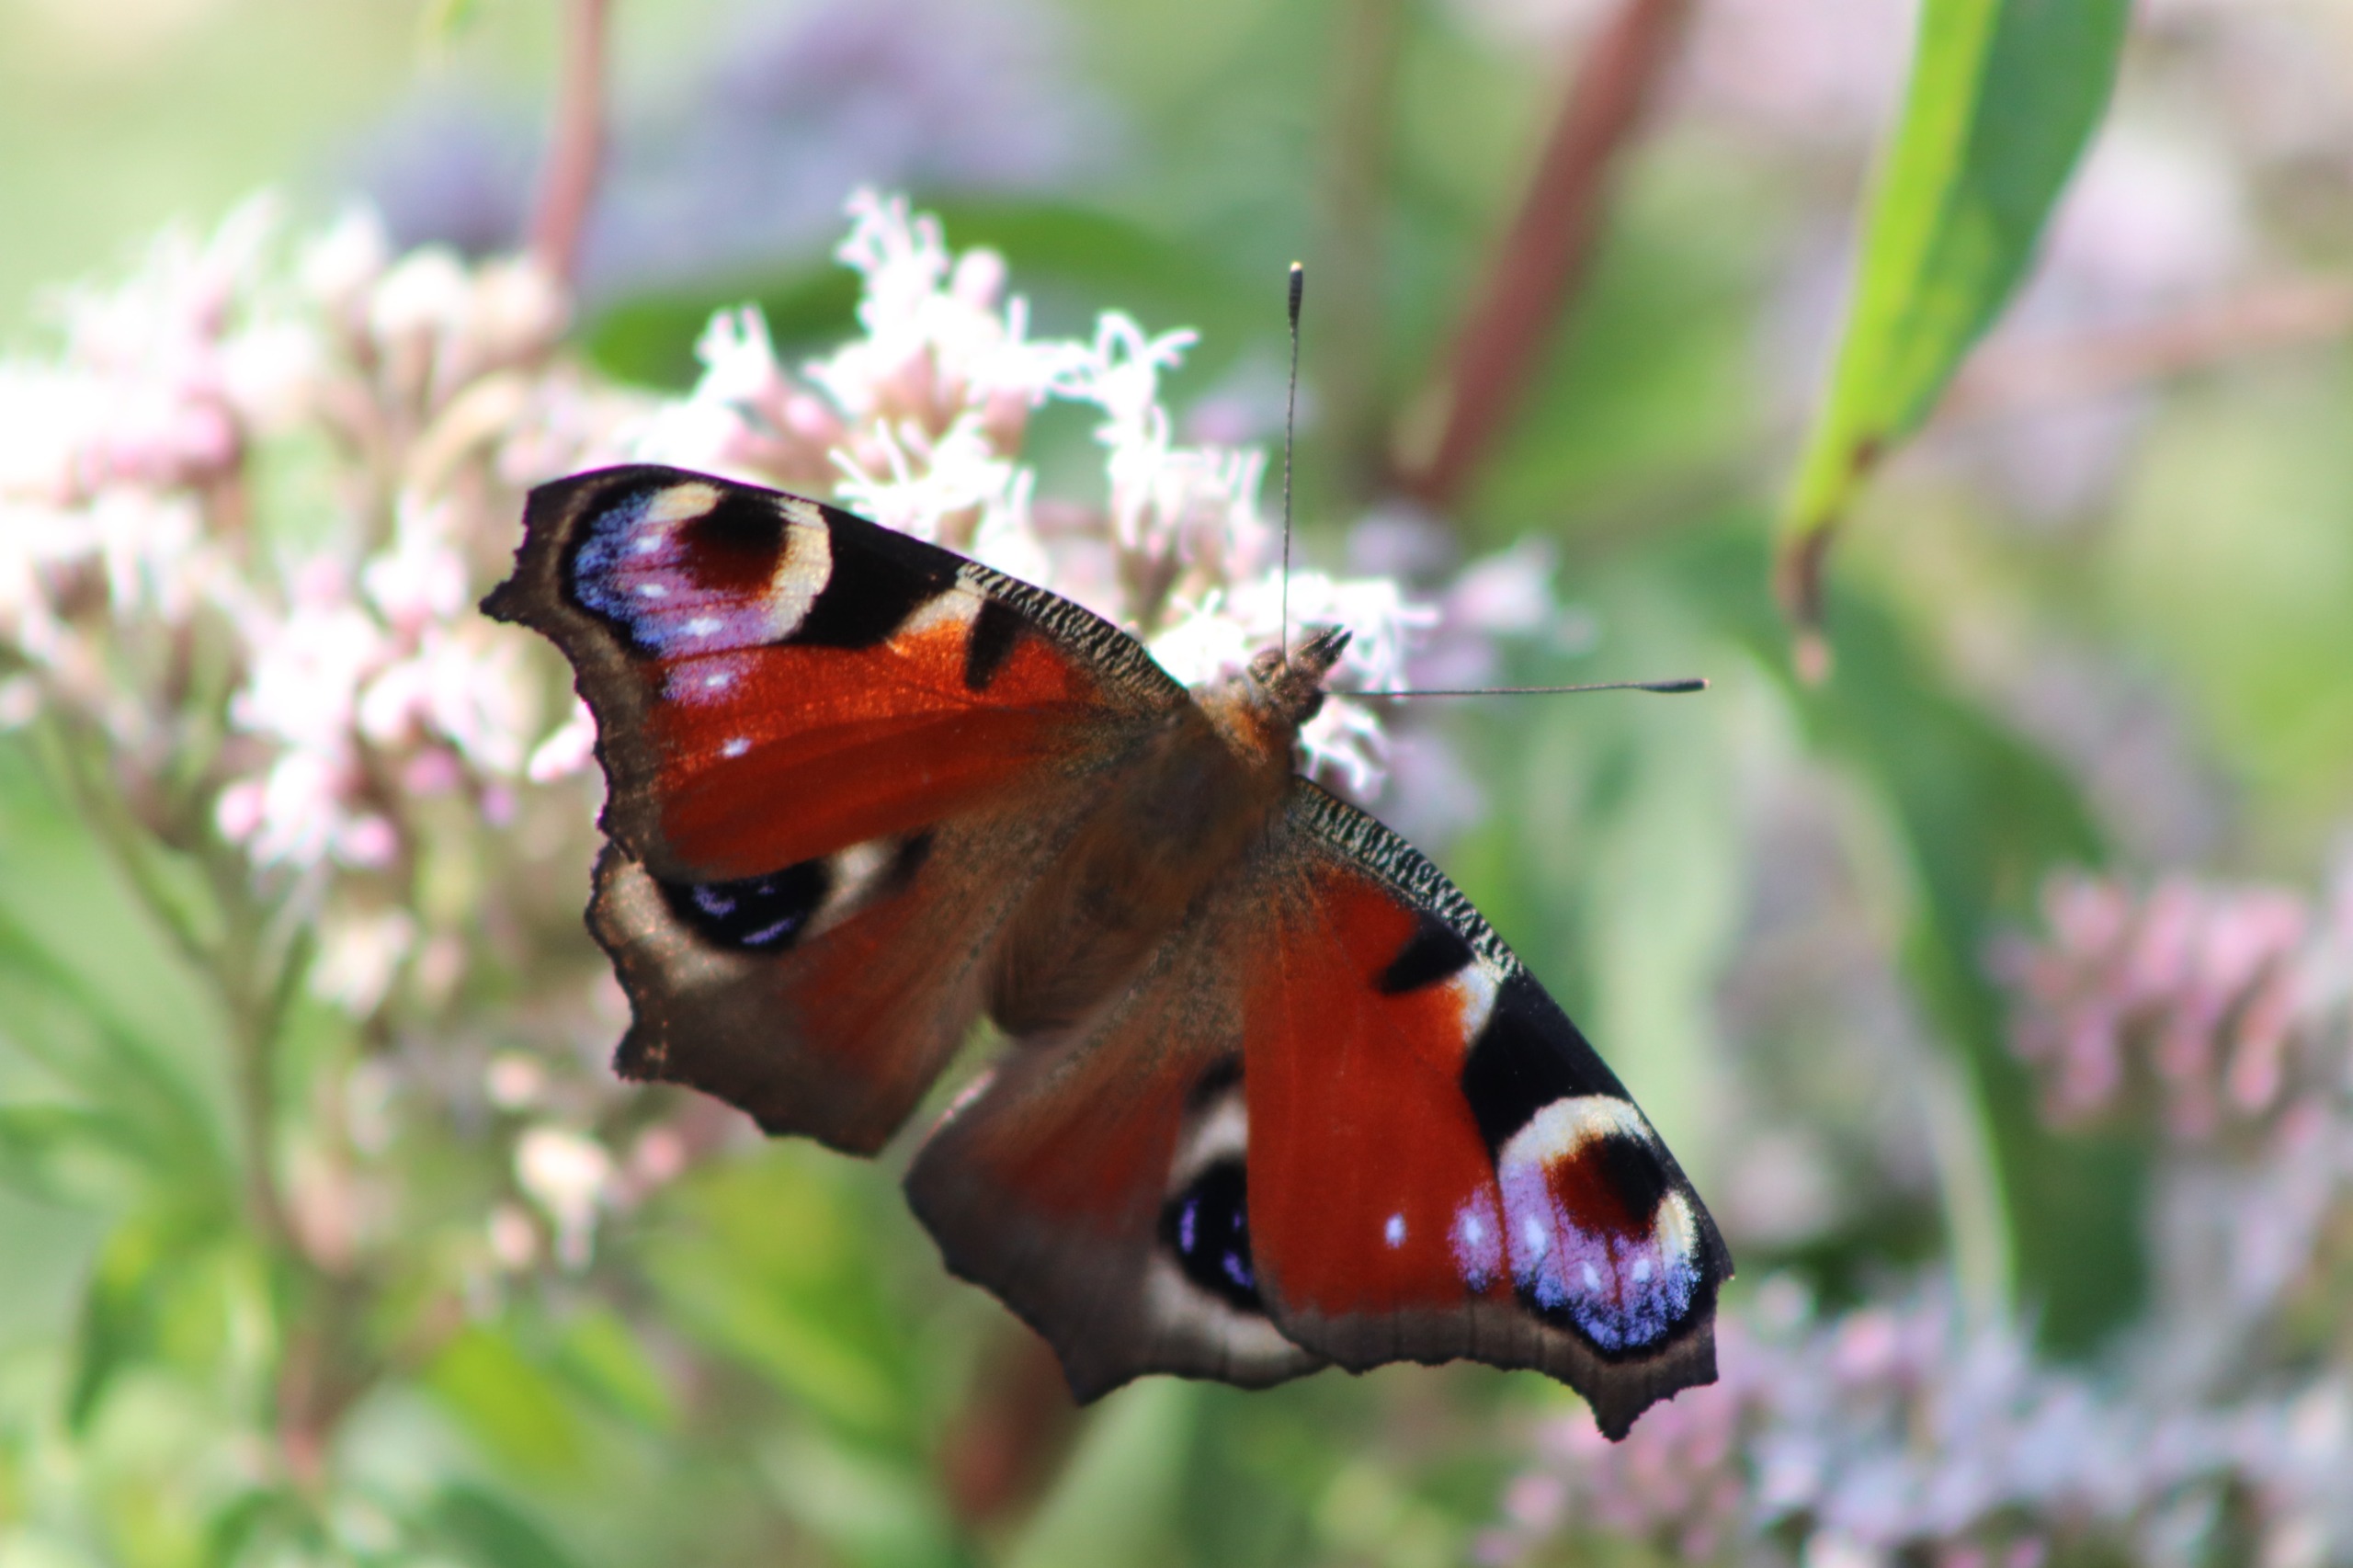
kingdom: Animalia
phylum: Arthropoda
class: Insecta
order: Lepidoptera
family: Nymphalidae
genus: Aglais
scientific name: Aglais io
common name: Dagpåfugleøje
